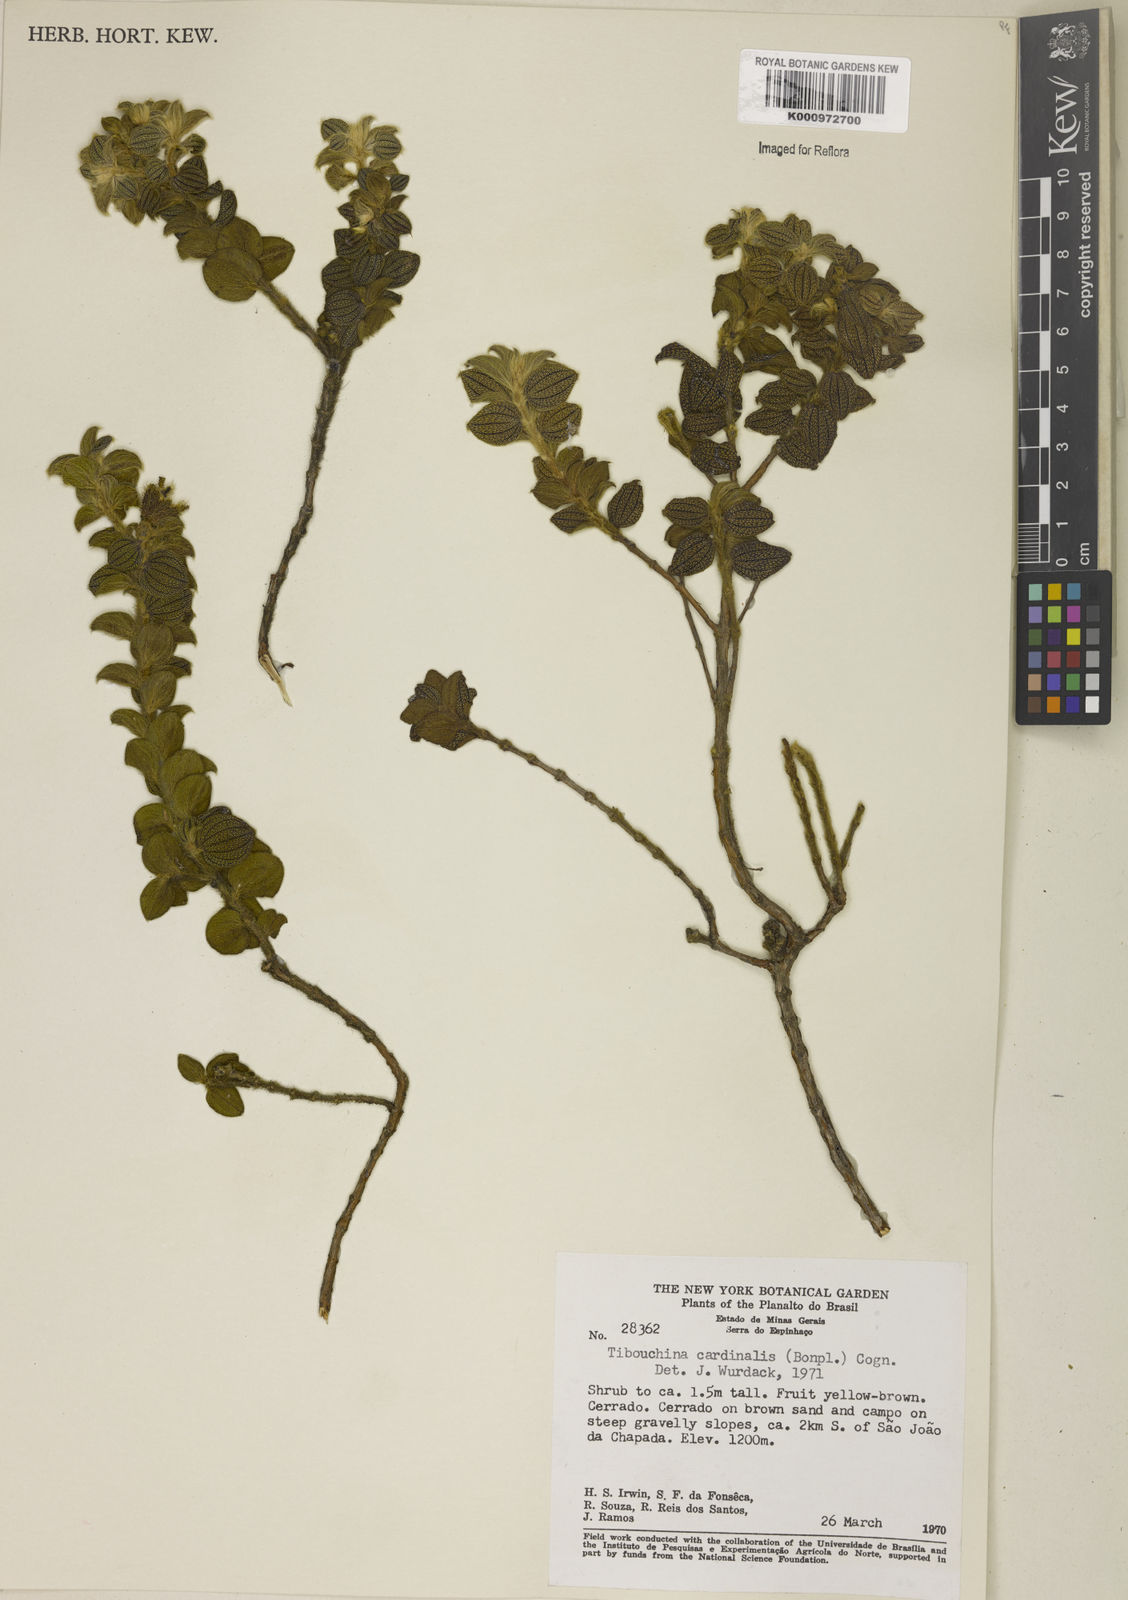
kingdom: Plantae
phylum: Tracheophyta
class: Magnoliopsida
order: Myrtales
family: Melastomataceae
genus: Chaetogastra
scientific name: Chaetogastra cardinalis
